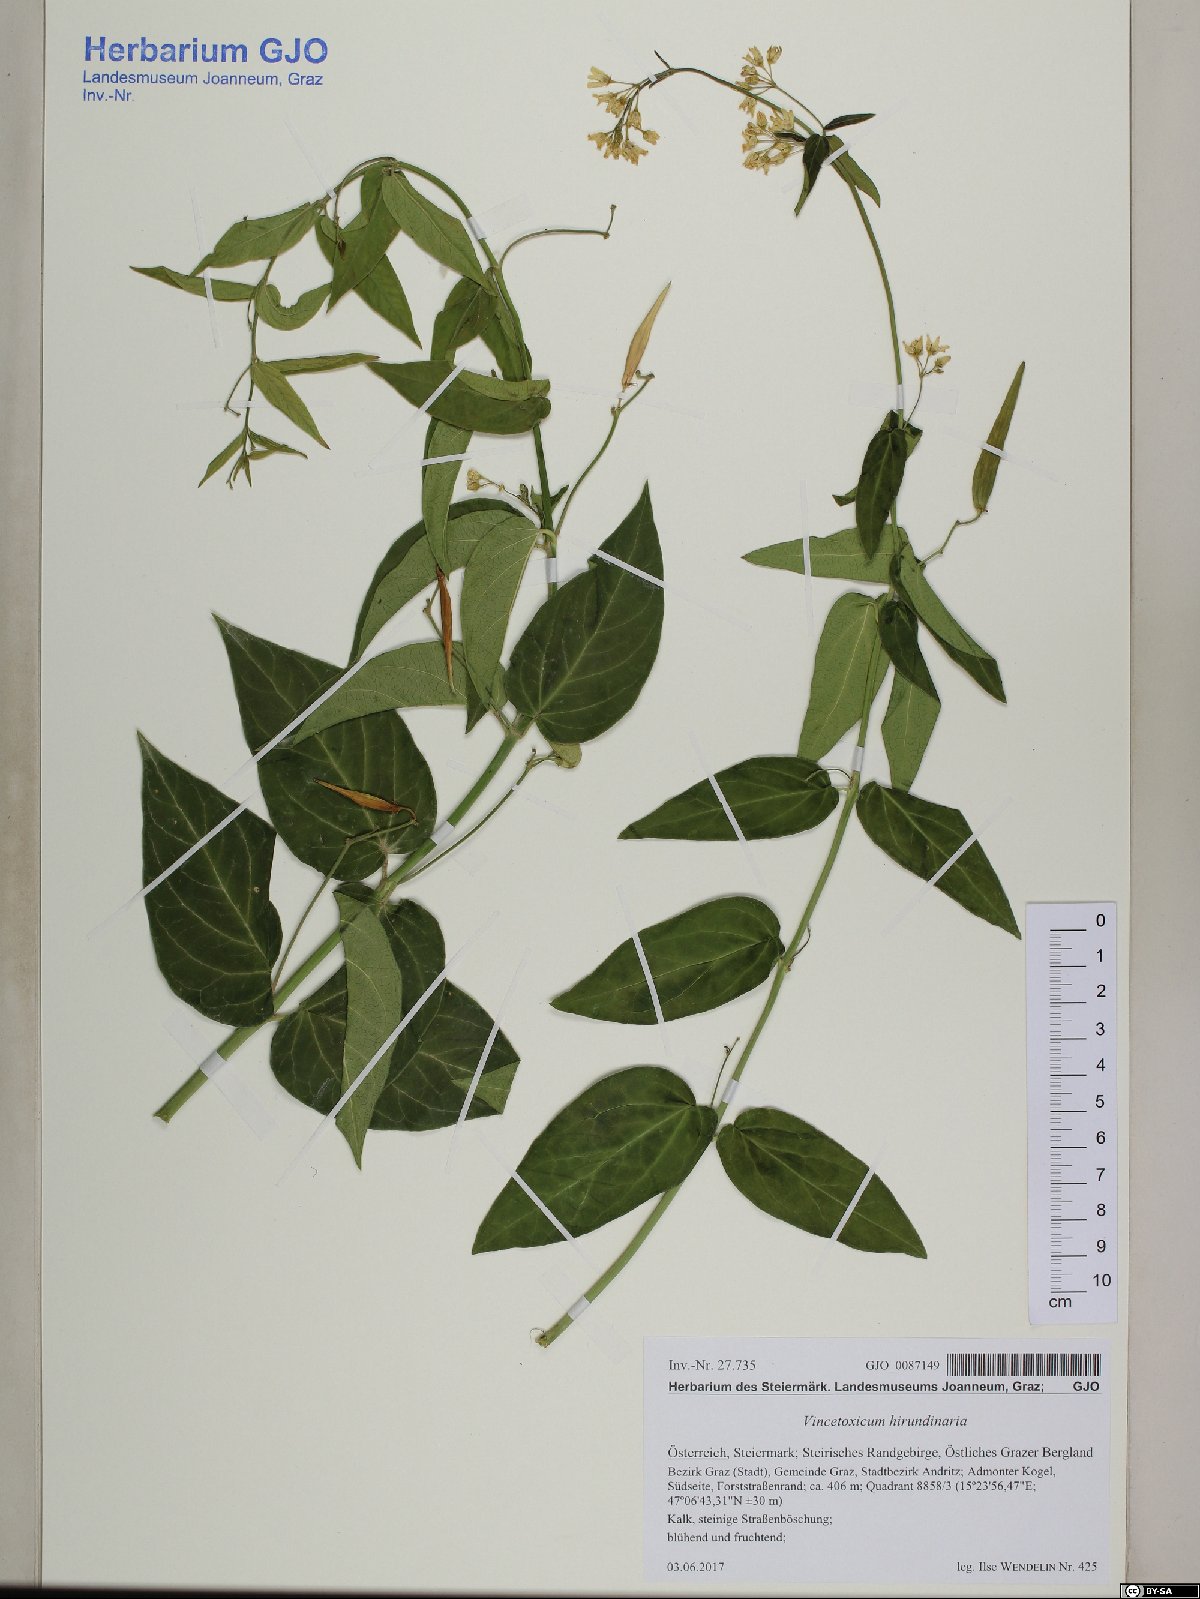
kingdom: Plantae
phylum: Tracheophyta
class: Magnoliopsida
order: Gentianales
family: Apocynaceae
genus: Vincetoxicum
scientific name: Vincetoxicum hirundinaria
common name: White swallowwort
